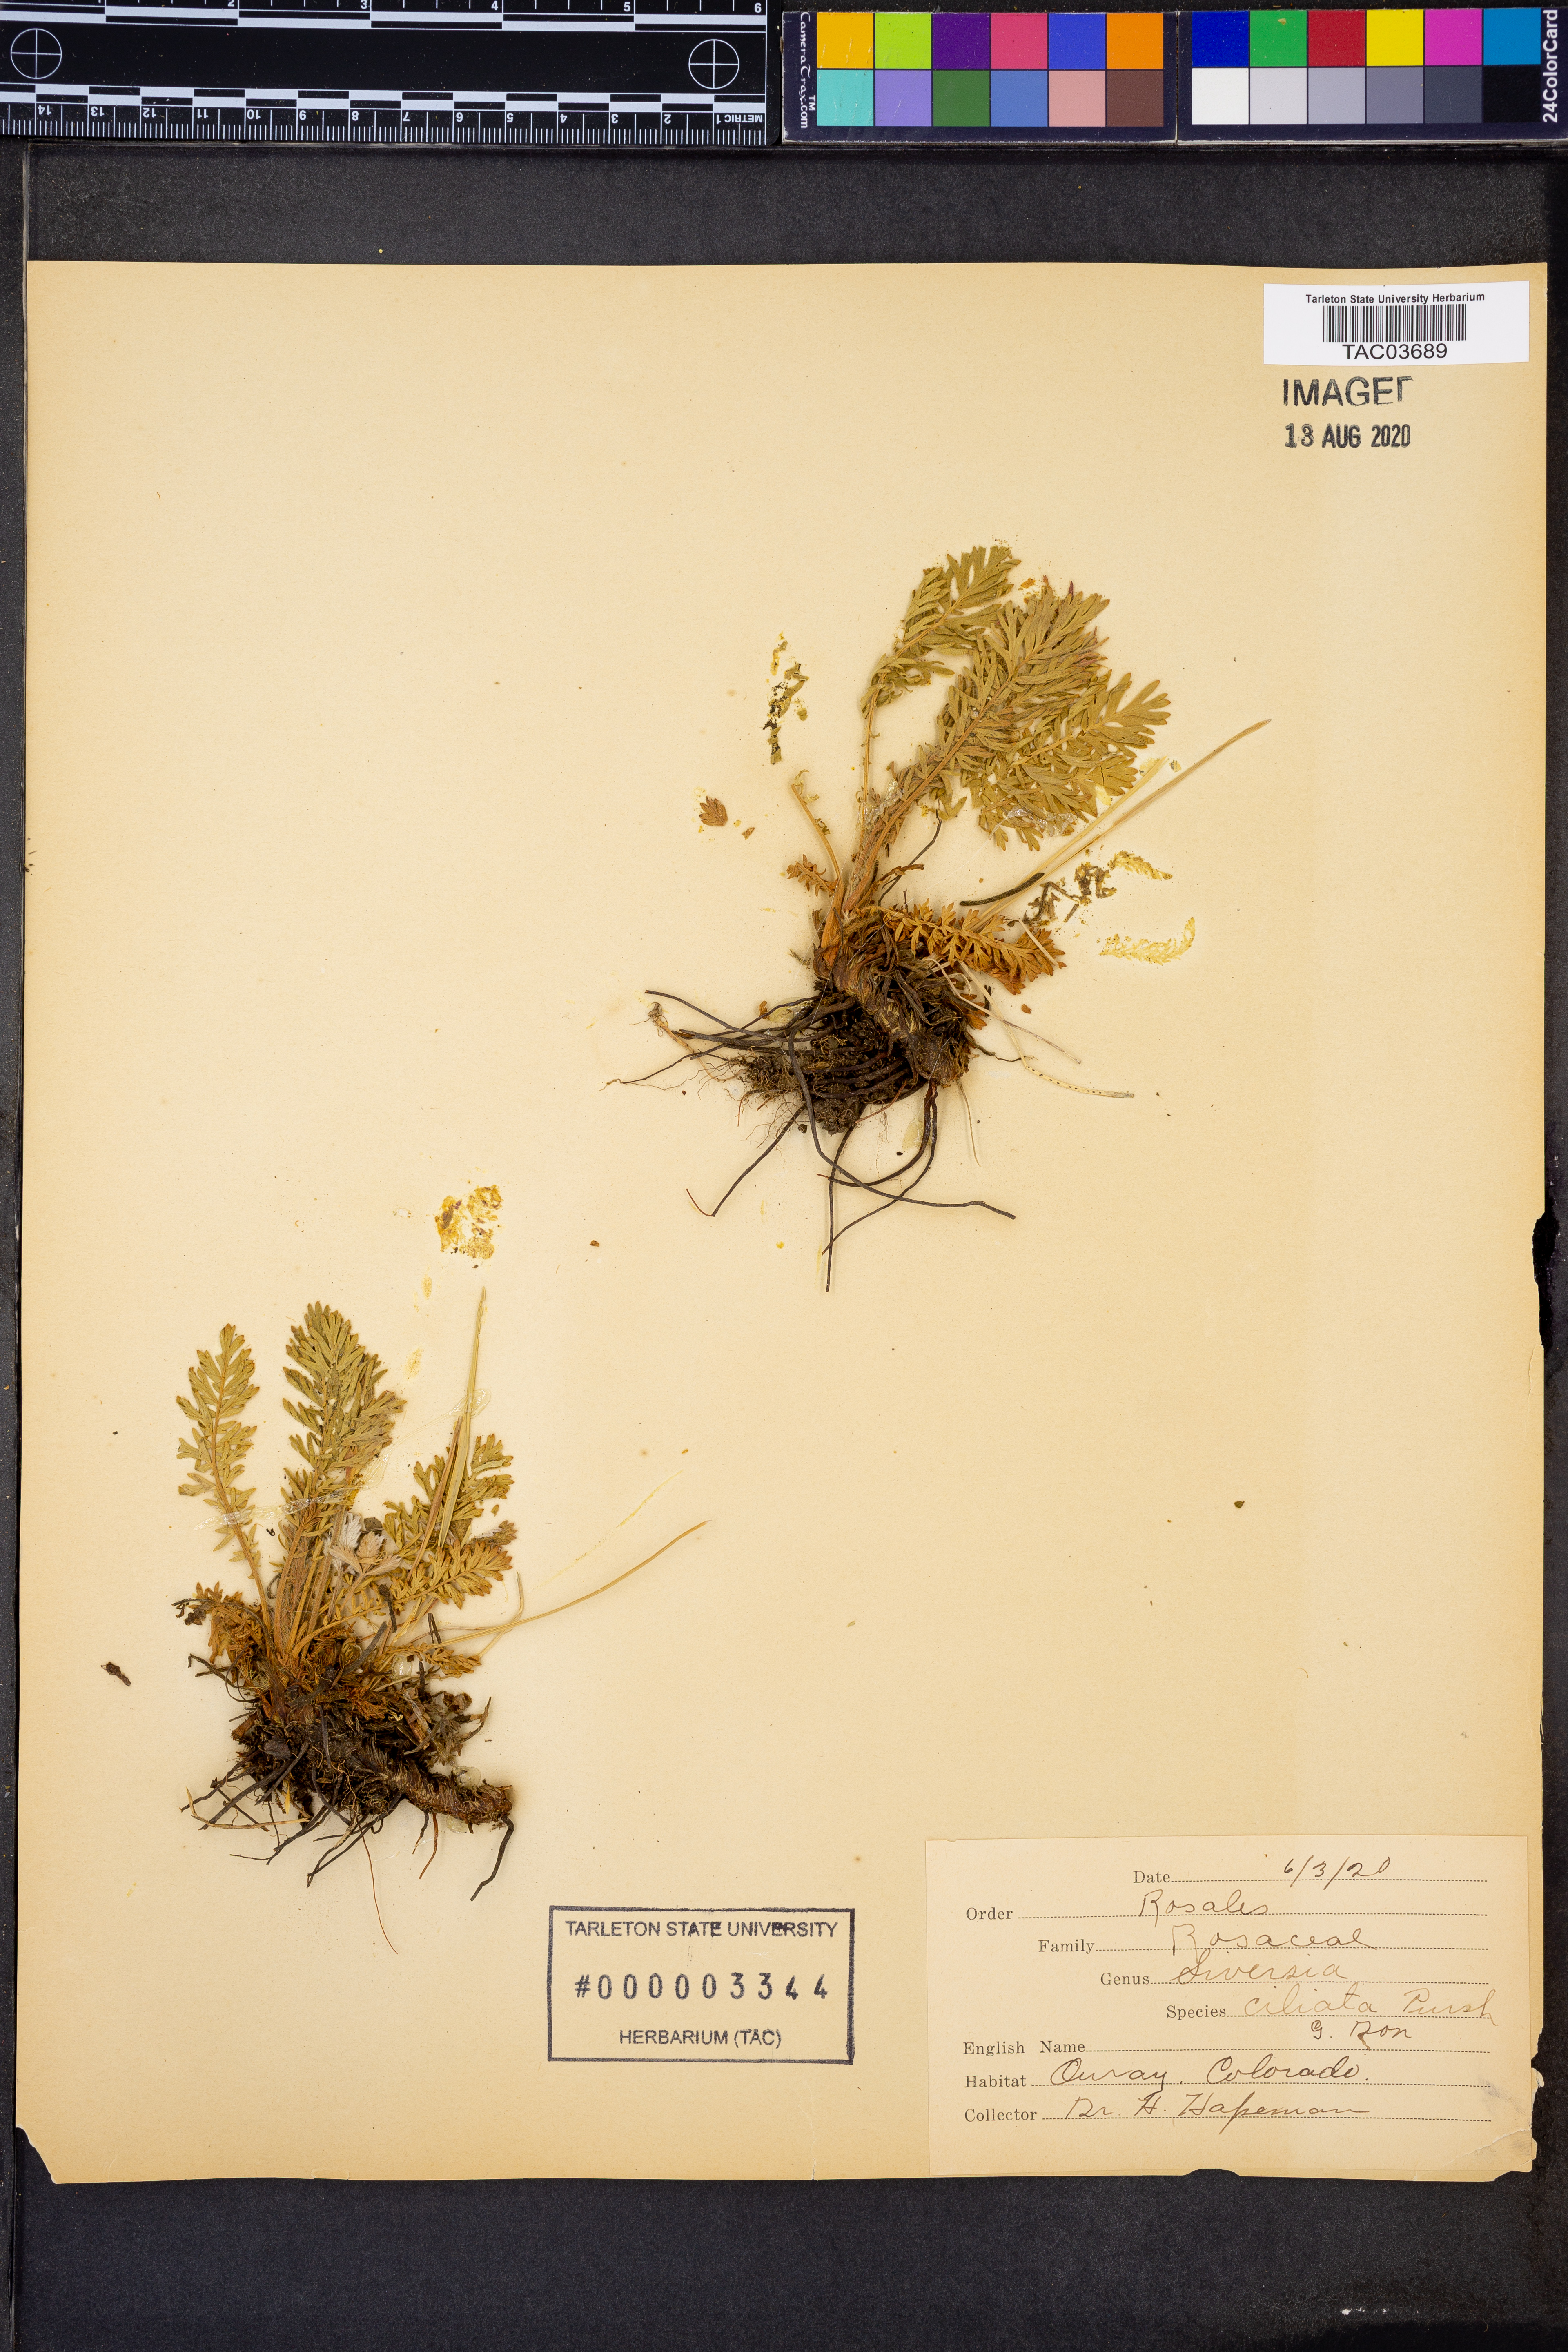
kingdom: Plantae
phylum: Tracheophyta
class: Magnoliopsida
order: Rosales
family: Rosaceae
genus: Geum
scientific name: Geum triflorum
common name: Old man's whiskers
